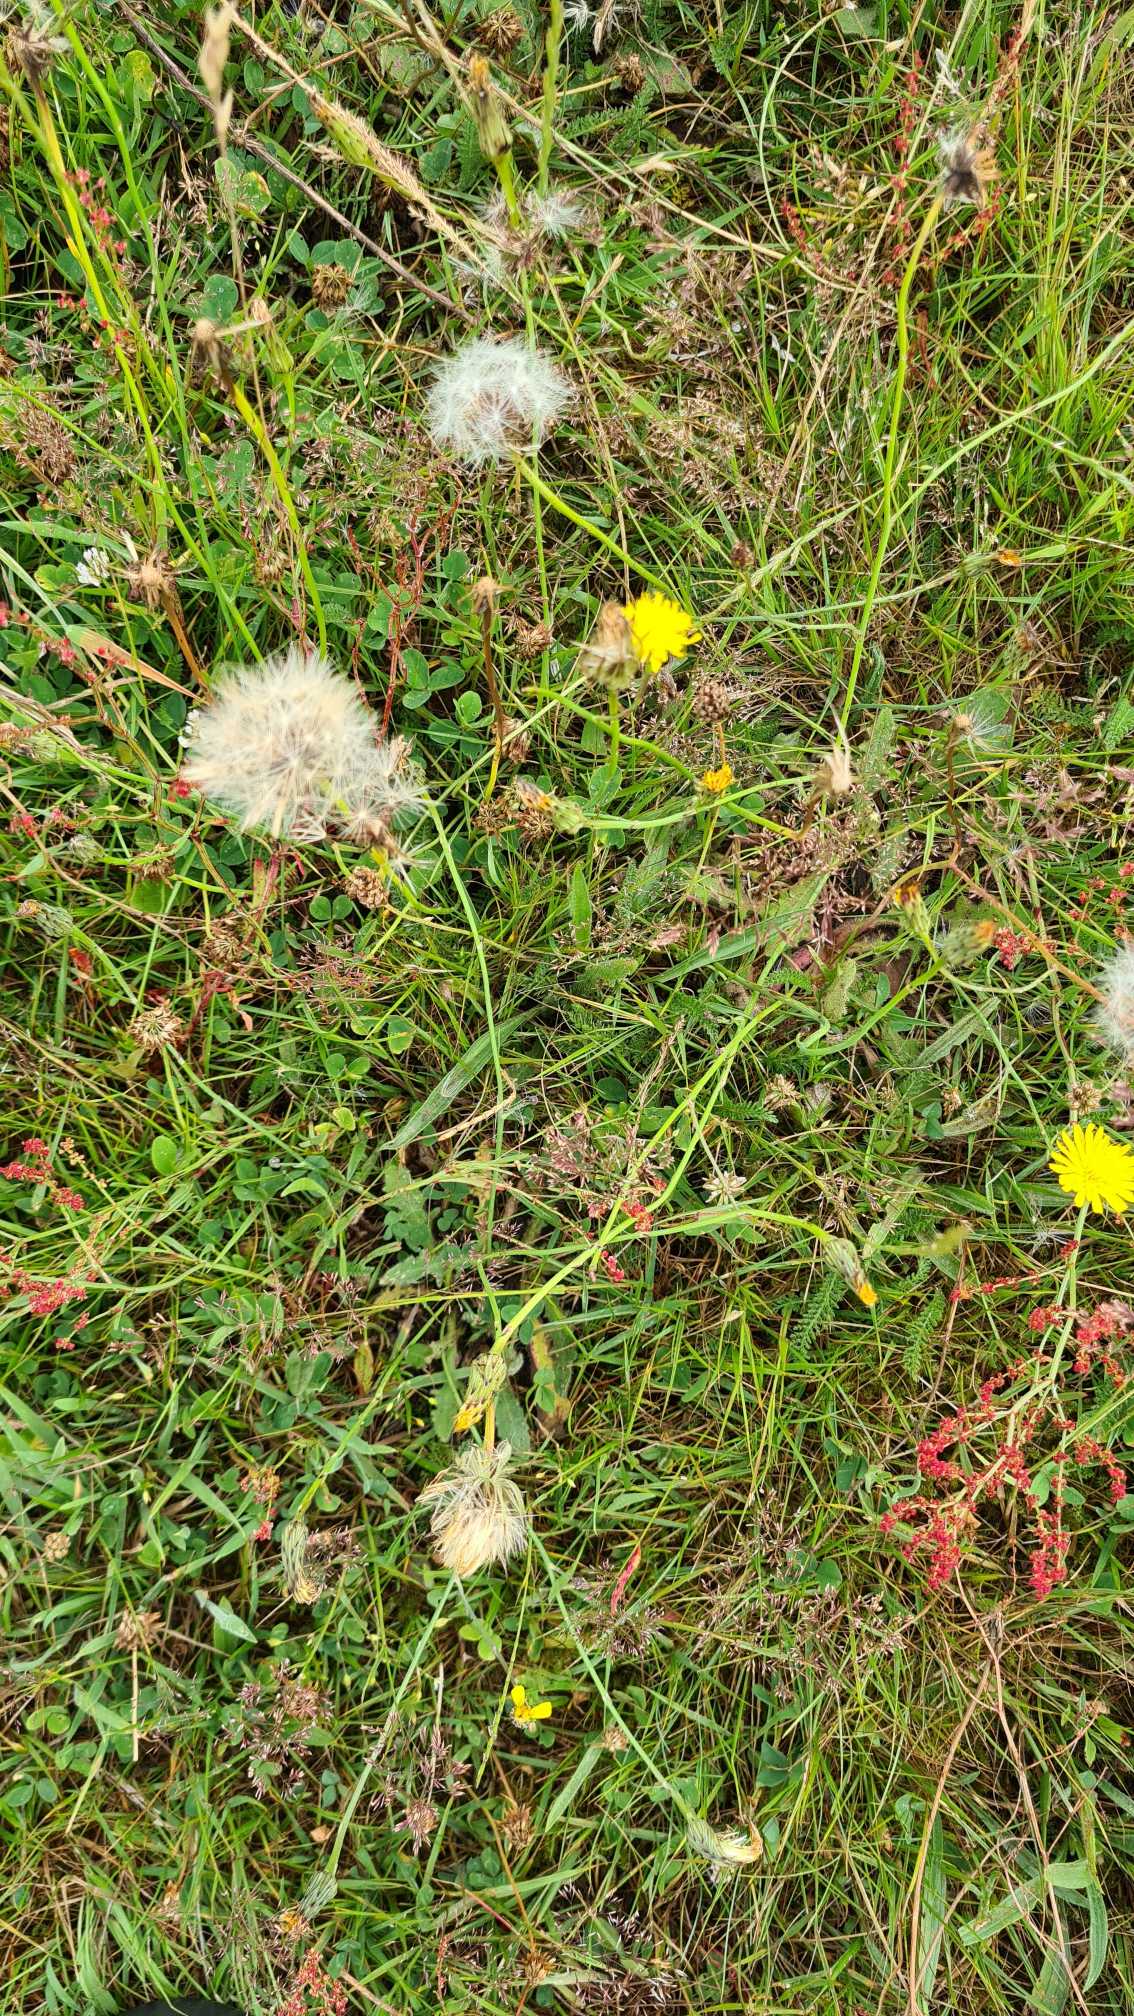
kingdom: Plantae
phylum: Tracheophyta
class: Magnoliopsida
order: Asterales
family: Asteraceae
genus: Hypochaeris
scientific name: Hypochaeris radicata
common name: Almindelig kongepen
